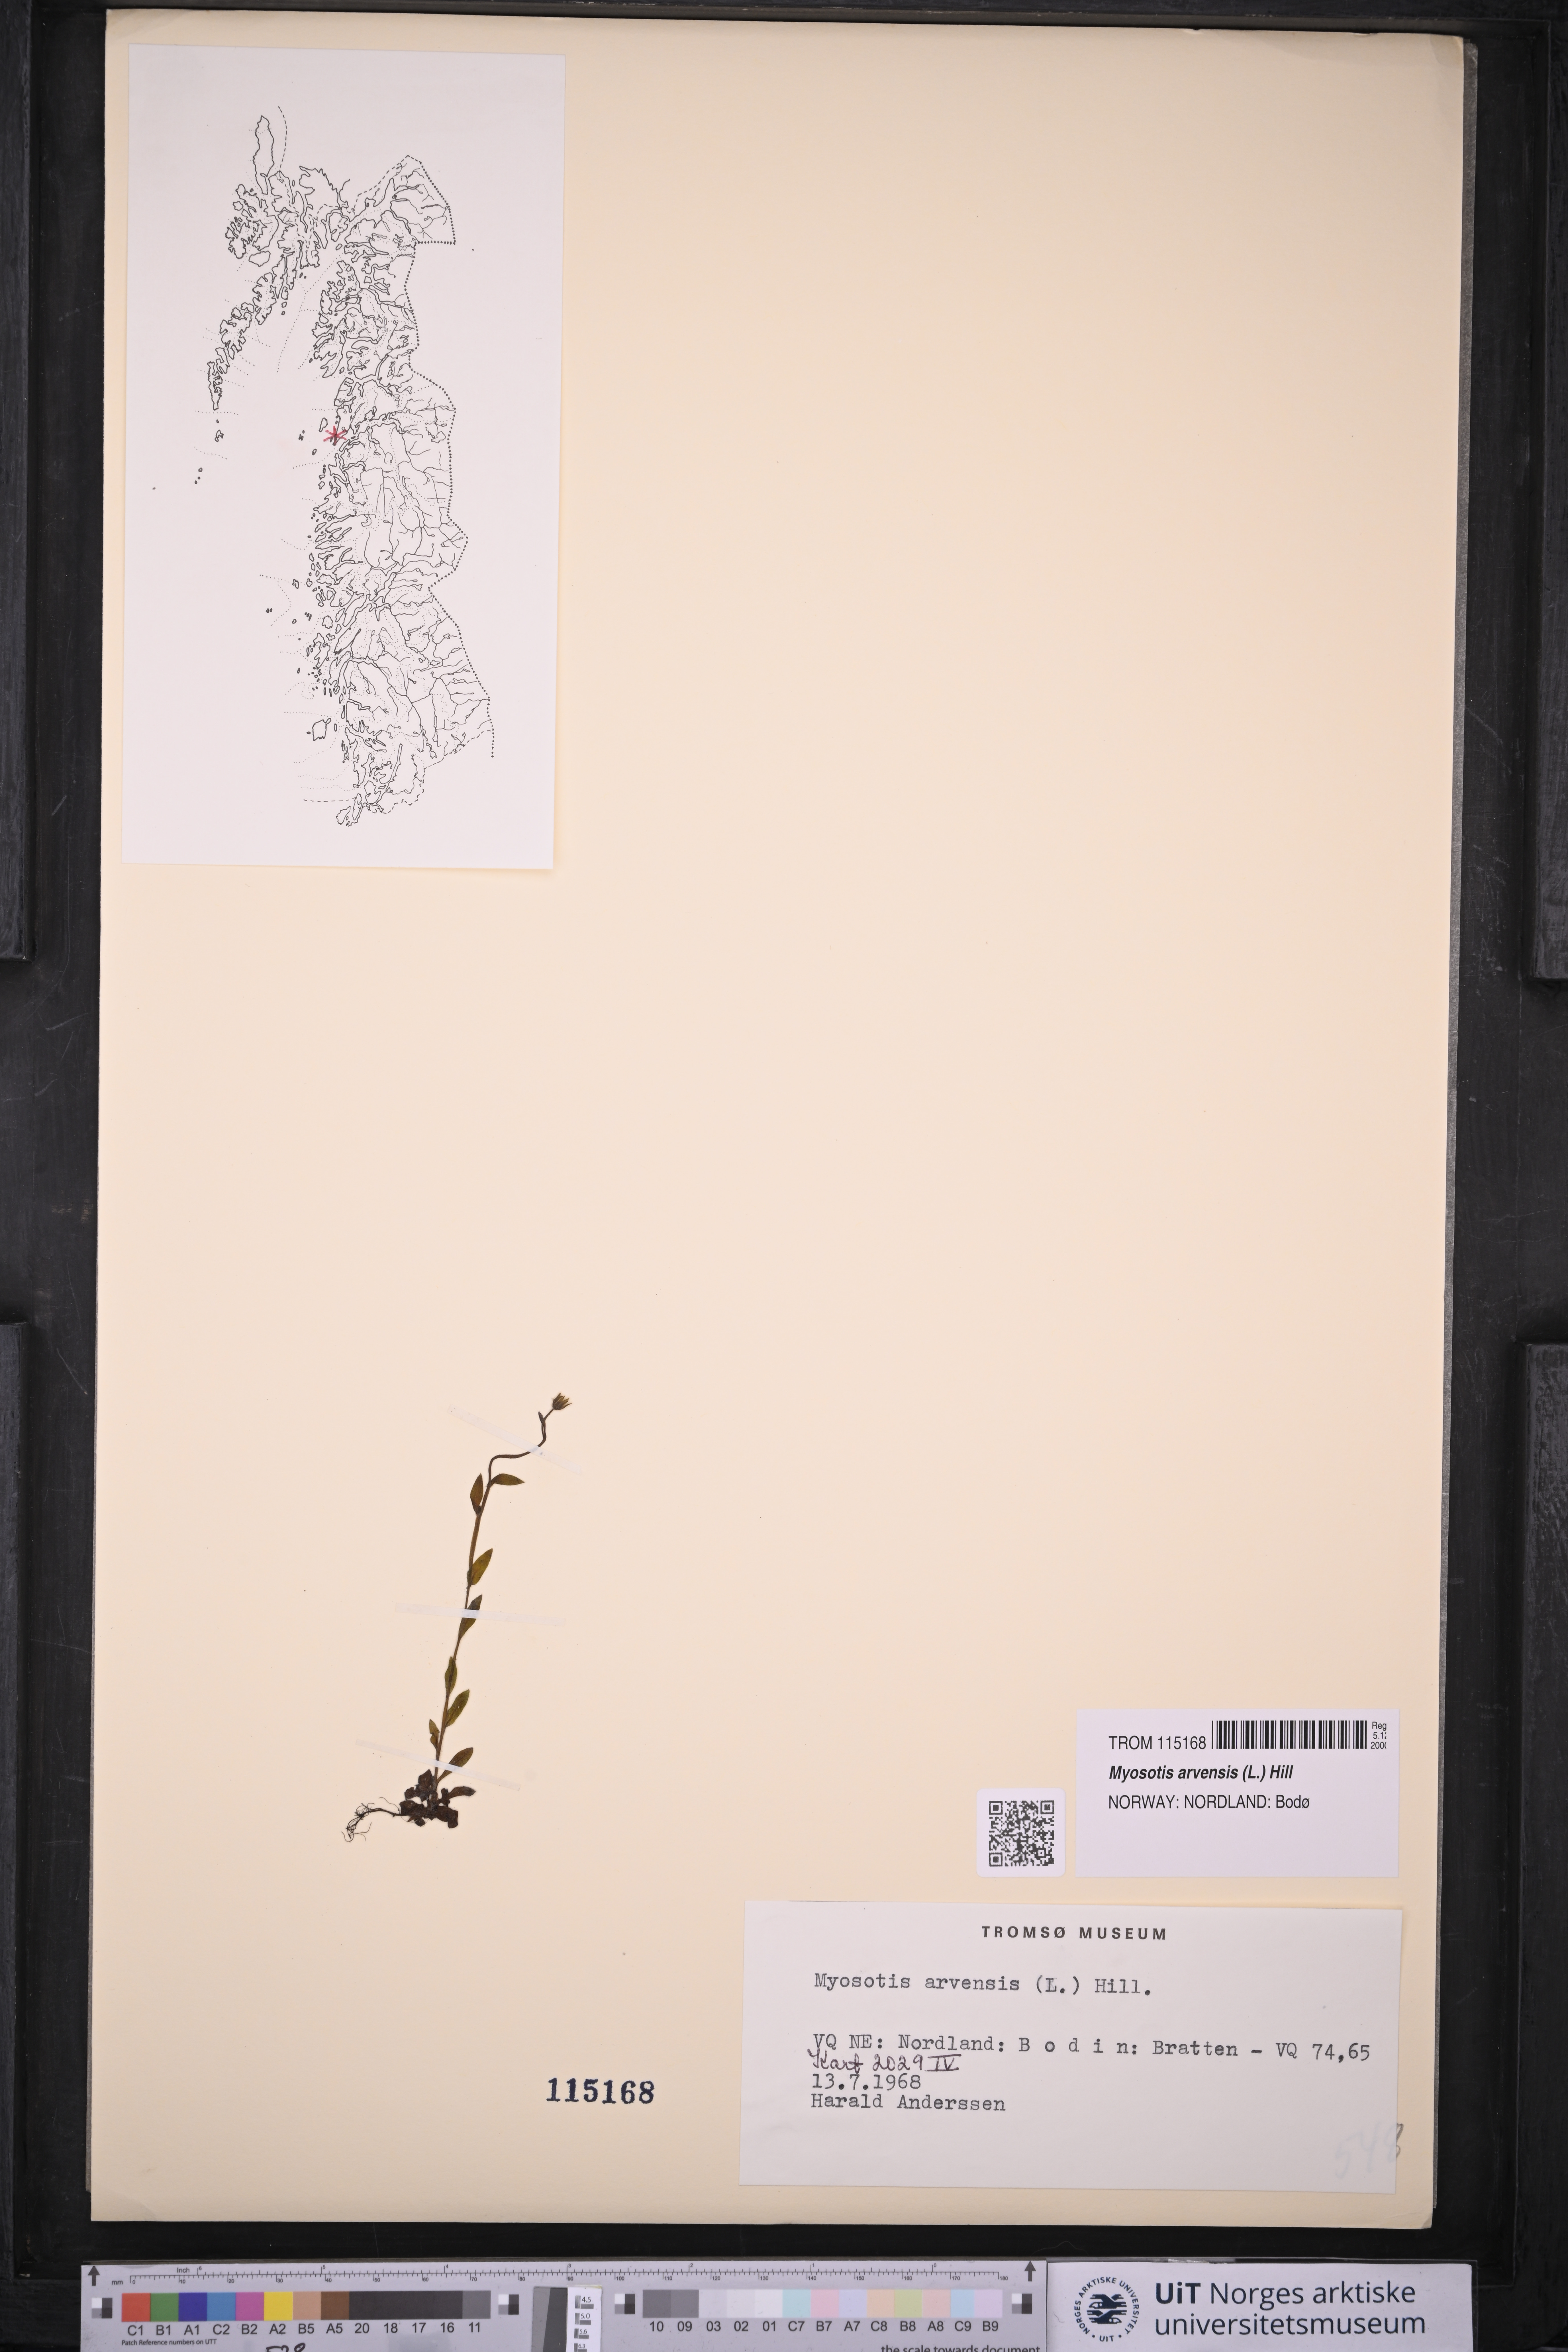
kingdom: Plantae
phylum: Tracheophyta
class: Magnoliopsida
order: Boraginales
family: Boraginaceae
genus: Myosotis
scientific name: Myosotis arvensis
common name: Field forget-me-not
